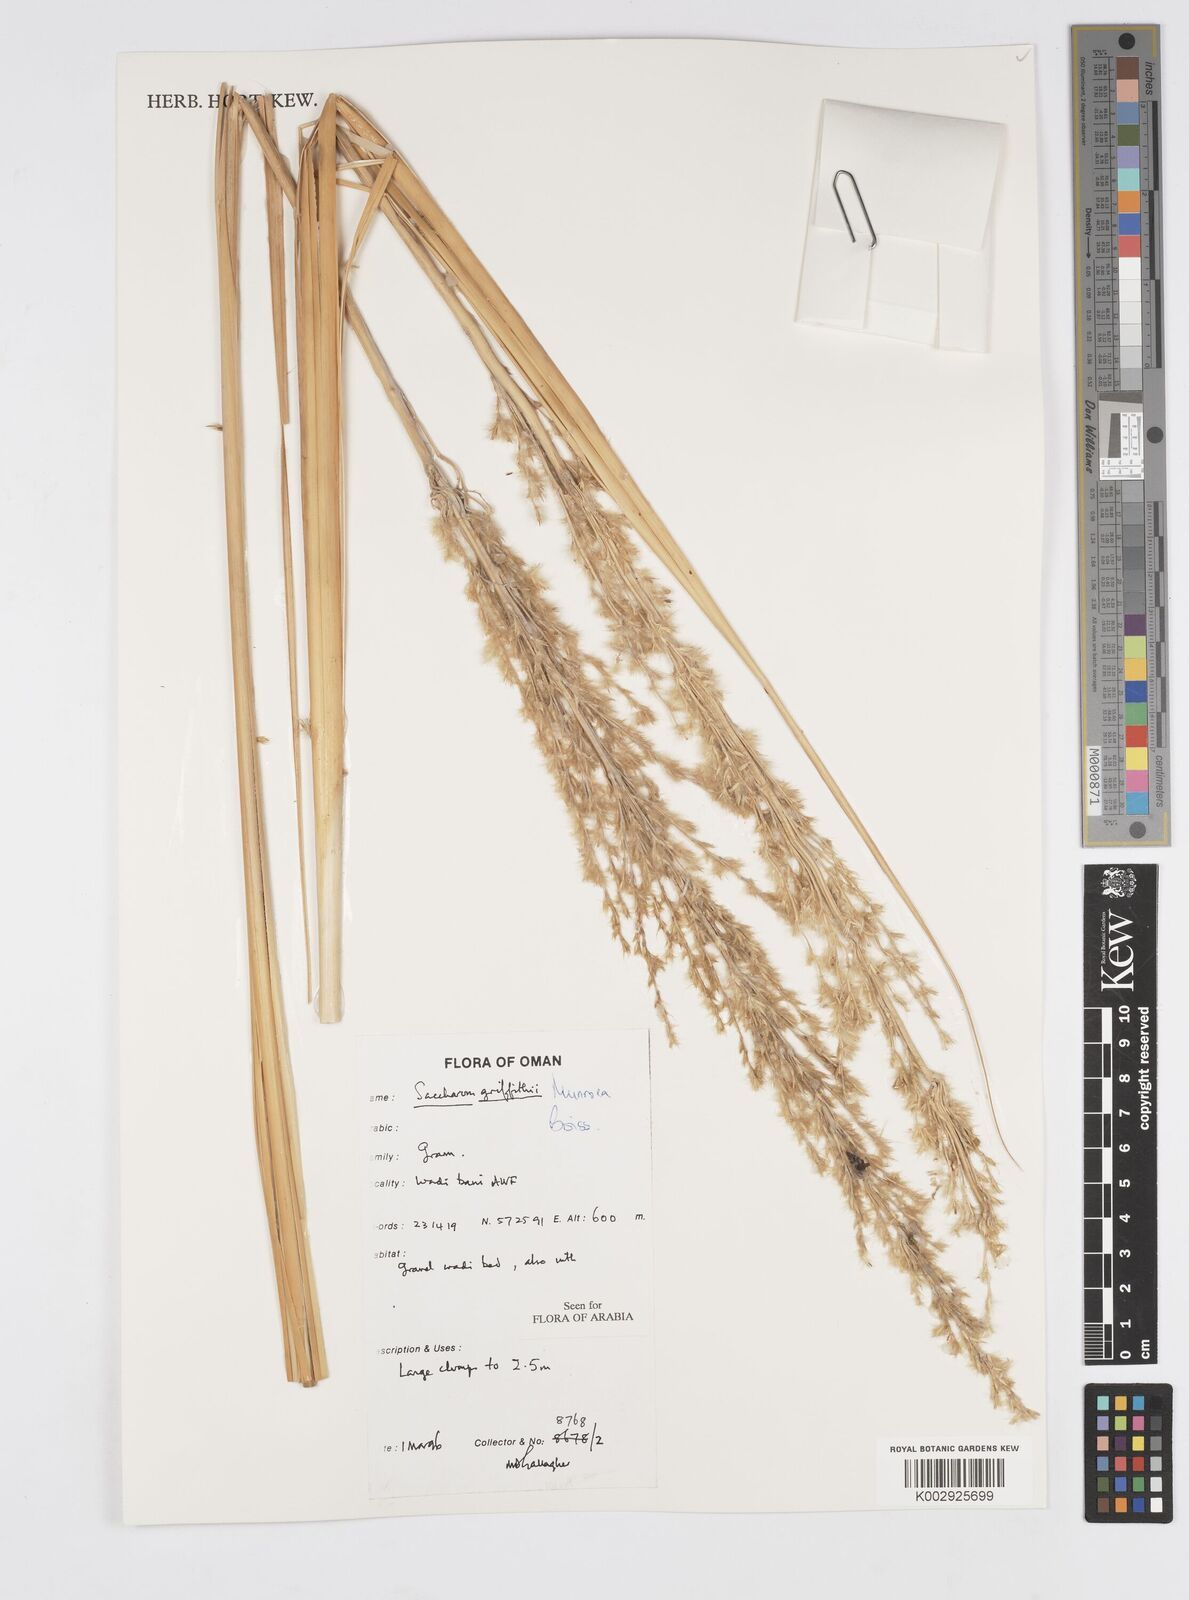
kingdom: Plantae
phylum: Tracheophyta
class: Liliopsida
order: Poales
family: Poaceae
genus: Saccharum
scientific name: Saccharum griffithii
